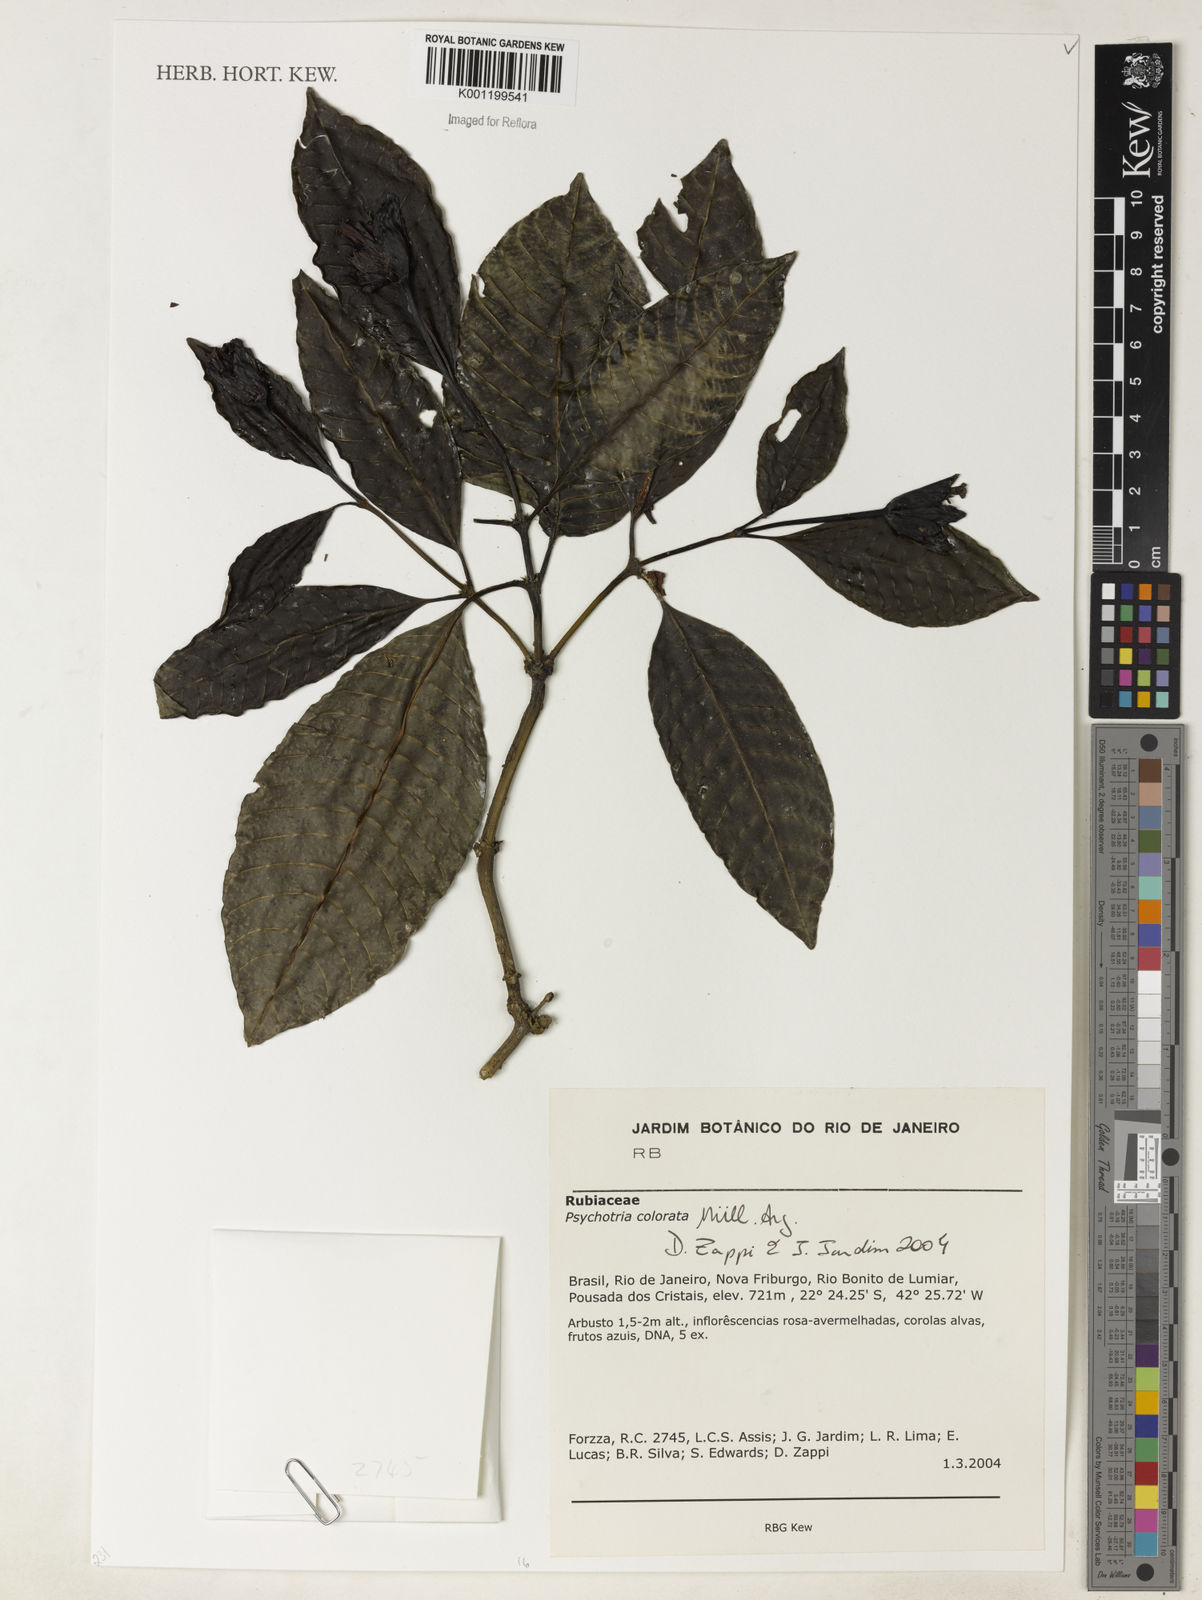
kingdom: Plantae
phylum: Tracheophyta
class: Magnoliopsida
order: Gentianales
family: Rubiaceae
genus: Psychotria
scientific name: Psychotria
